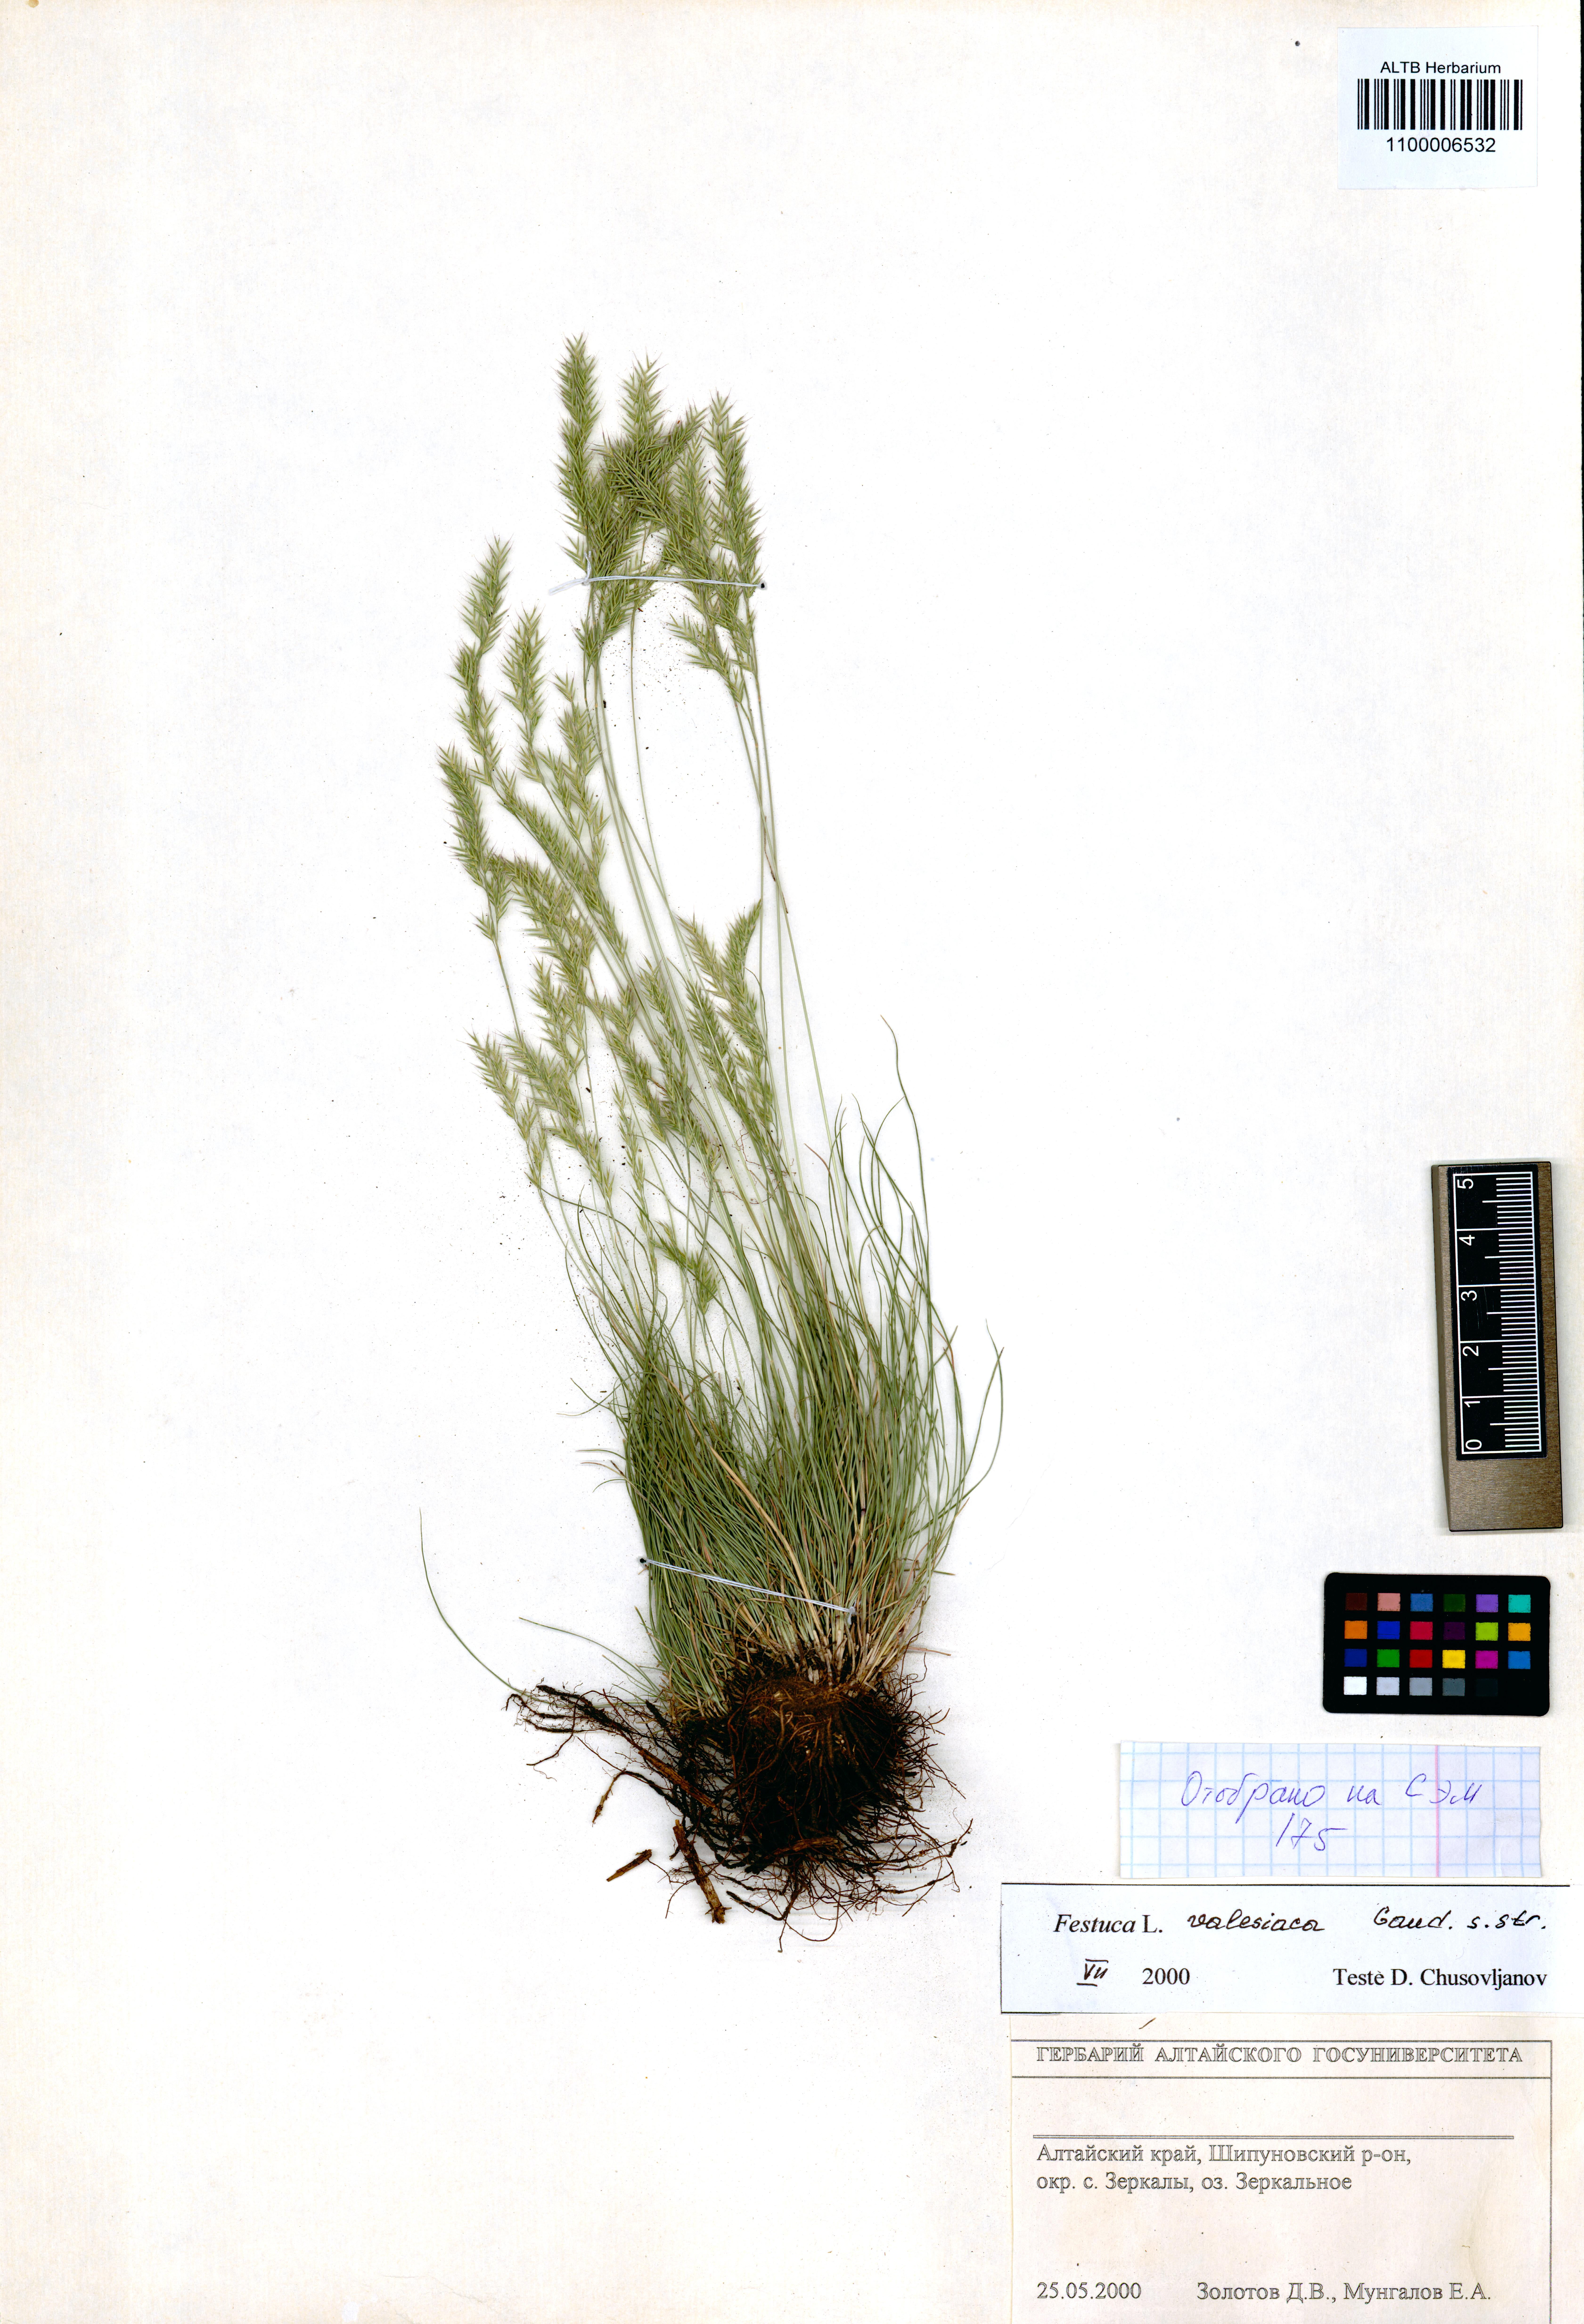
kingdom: Plantae
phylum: Tracheophyta
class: Liliopsida
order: Poales
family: Poaceae
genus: Festuca
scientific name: Festuca valesiaca
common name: Volga fescue
